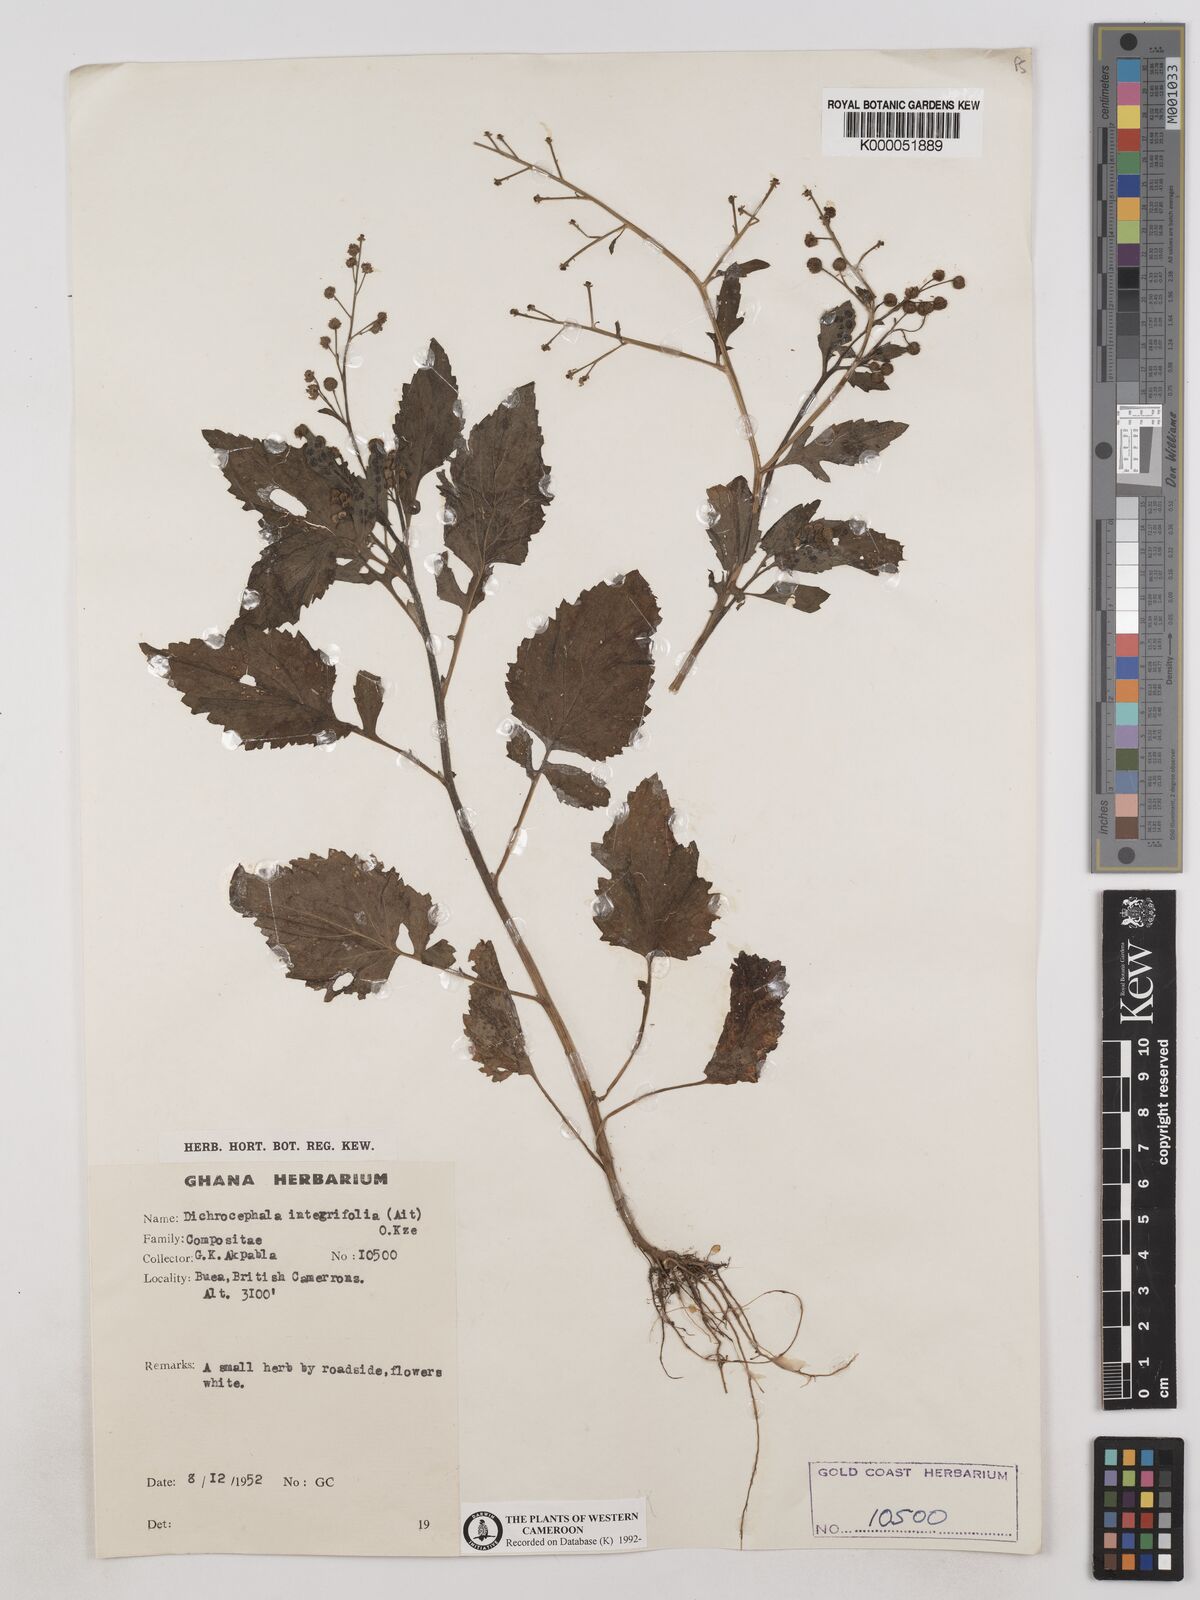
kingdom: Plantae
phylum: Tracheophyta
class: Magnoliopsida
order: Asterales
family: Asteraceae
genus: Dichrocephala
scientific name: Dichrocephala integrifolia
